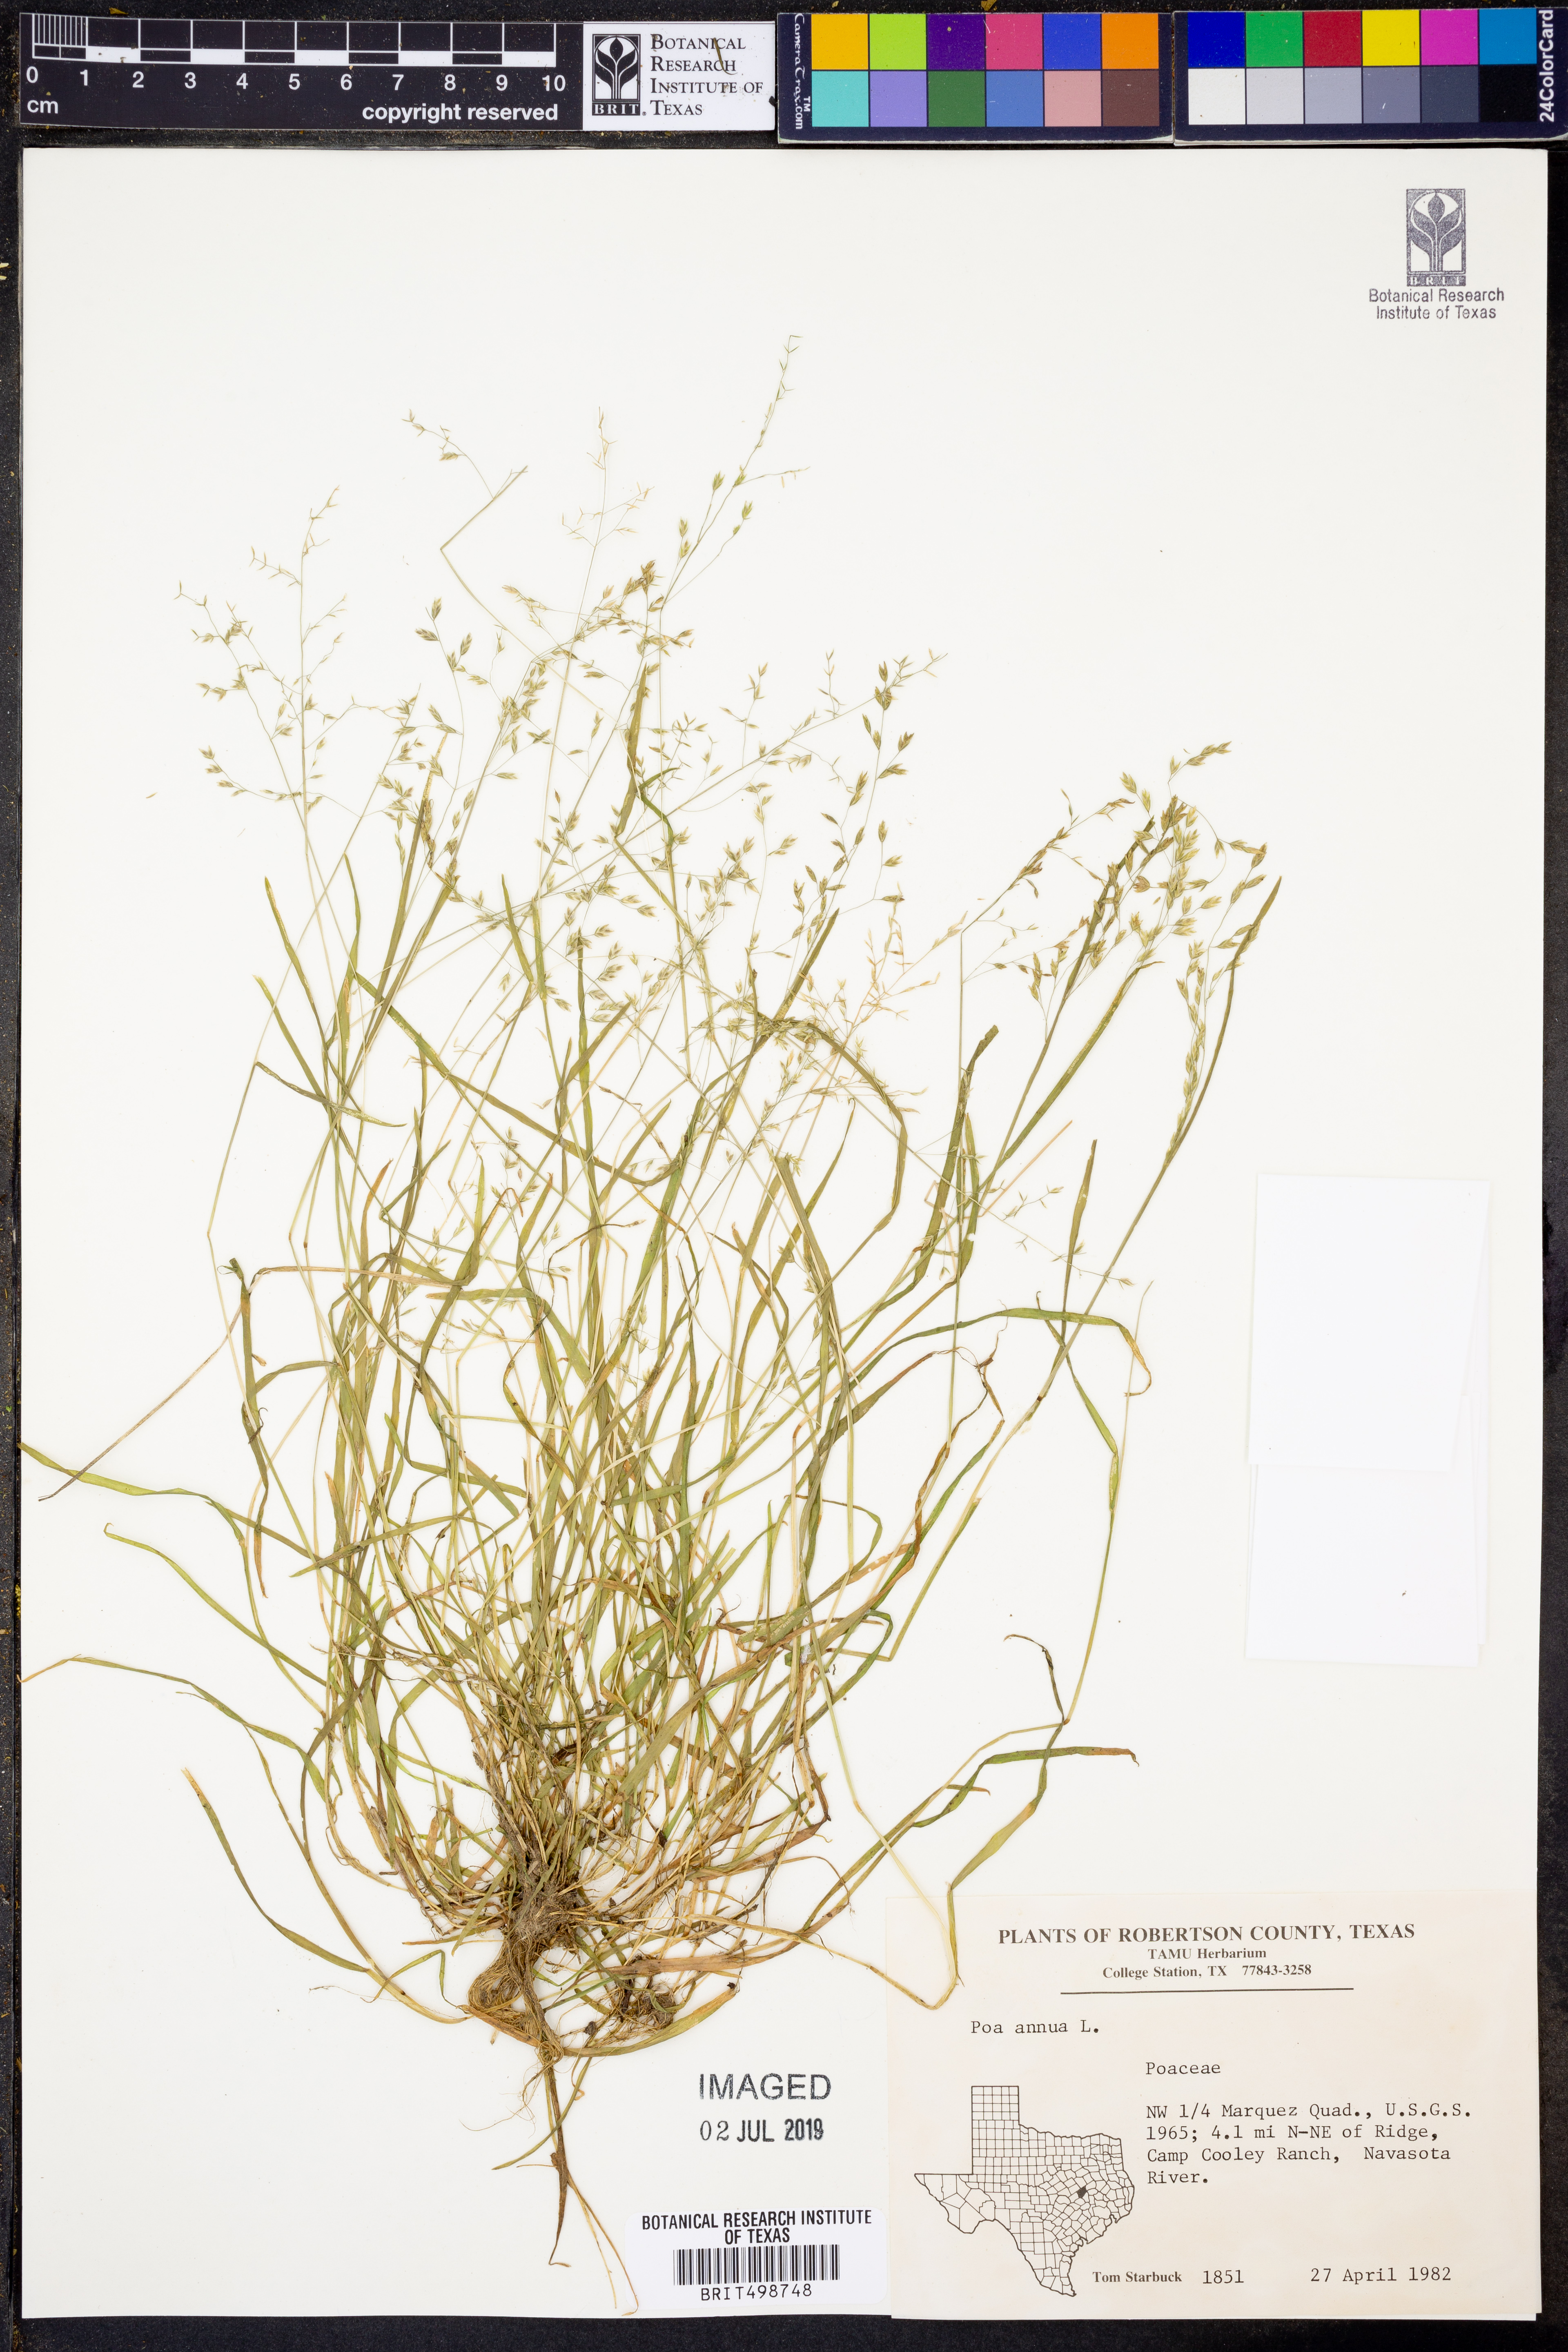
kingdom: Plantae
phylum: Tracheophyta
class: Liliopsida
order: Poales
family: Poaceae
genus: Poa
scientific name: Poa annua
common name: Annual bluegrass
